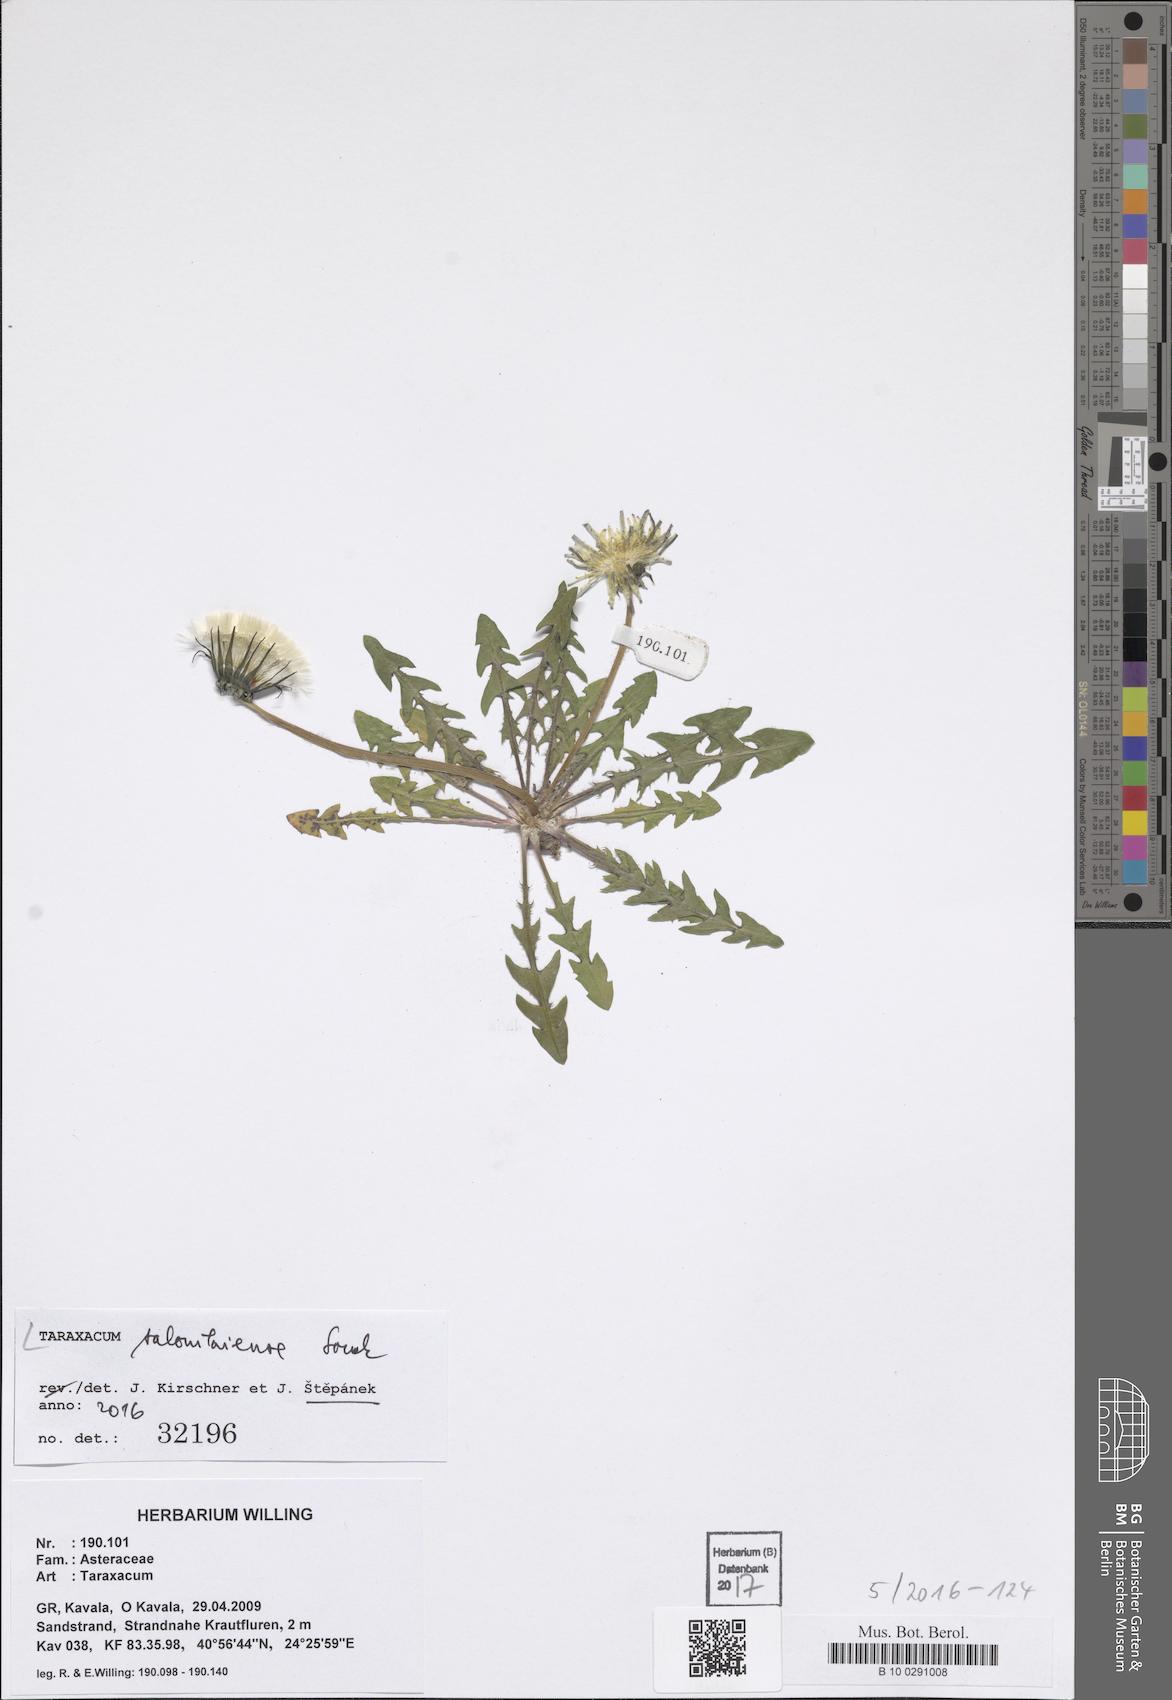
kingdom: Plantae
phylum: Tracheophyta
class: Magnoliopsida
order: Asterales
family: Asteraceae
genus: Taraxacum
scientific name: Taraxacum salonikiense
